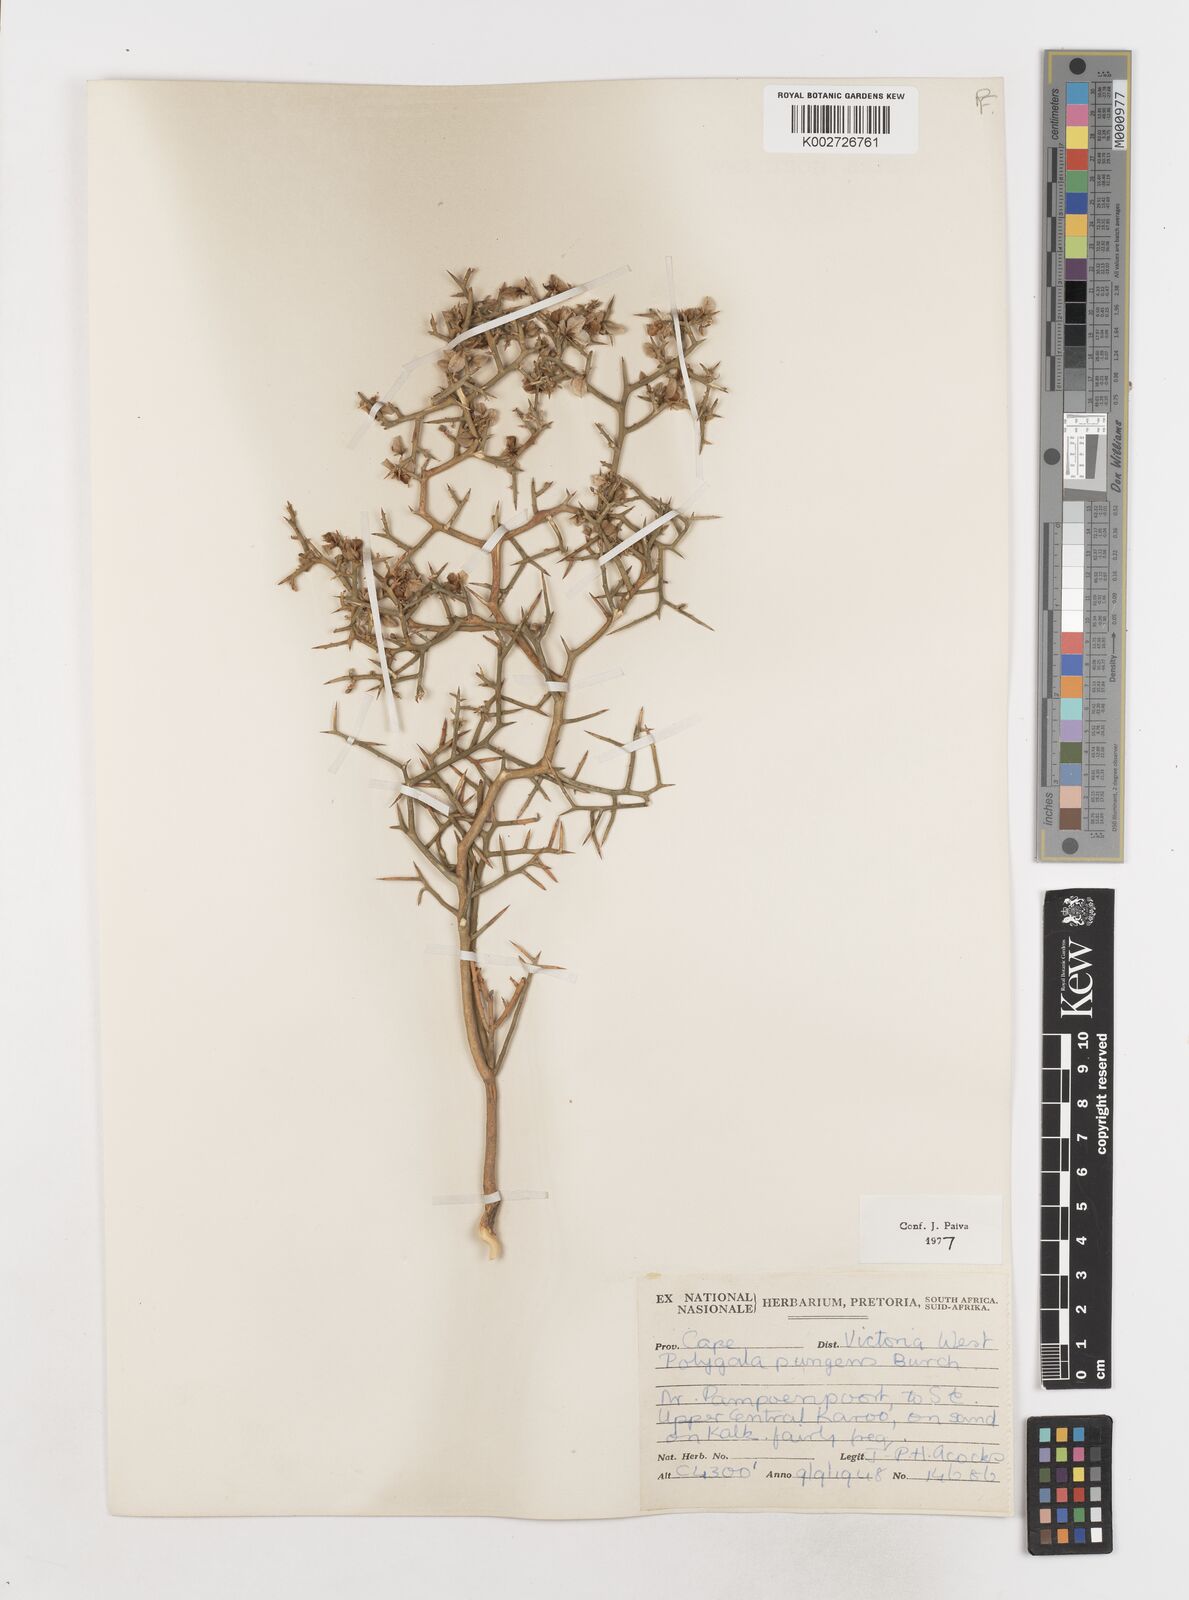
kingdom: Plantae
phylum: Tracheophyta
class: Magnoliopsida
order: Fabales
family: Polygalaceae
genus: Polygala
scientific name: Polygala pungens
